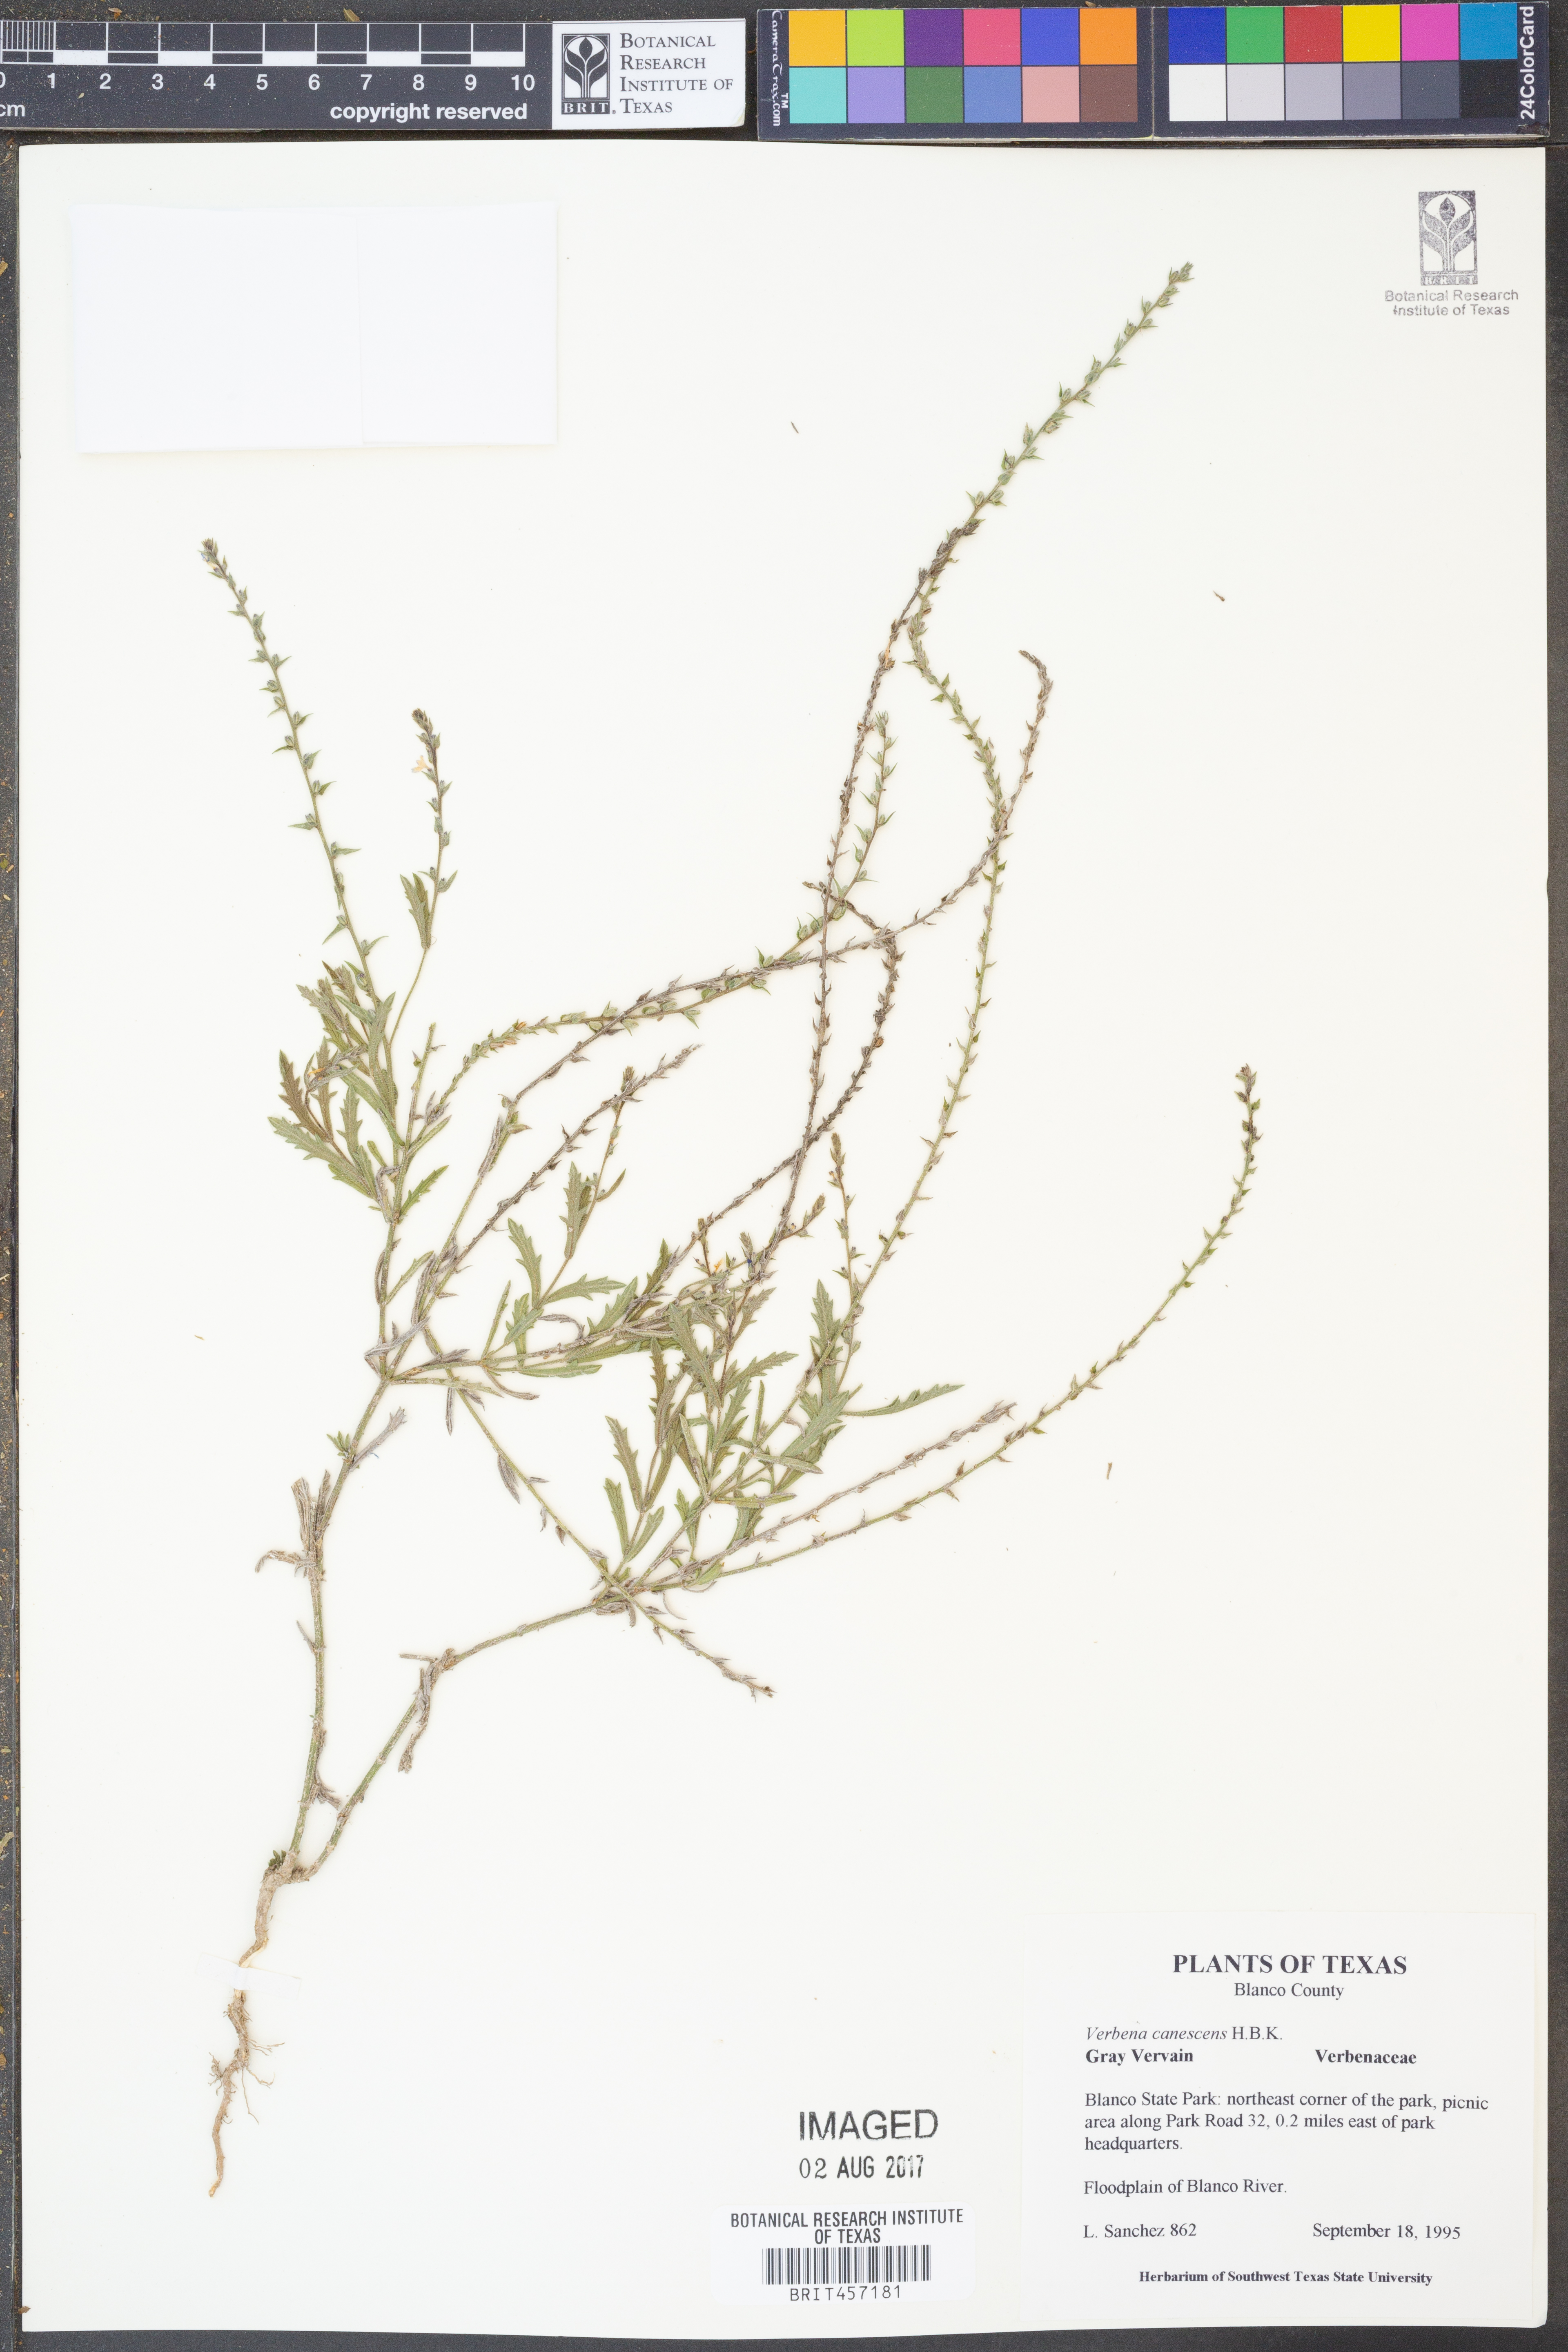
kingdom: Plantae
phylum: Tracheophyta
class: Magnoliopsida
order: Lamiales
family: Verbenaceae
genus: Verbena
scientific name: Verbena canescens
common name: Gray vervain
